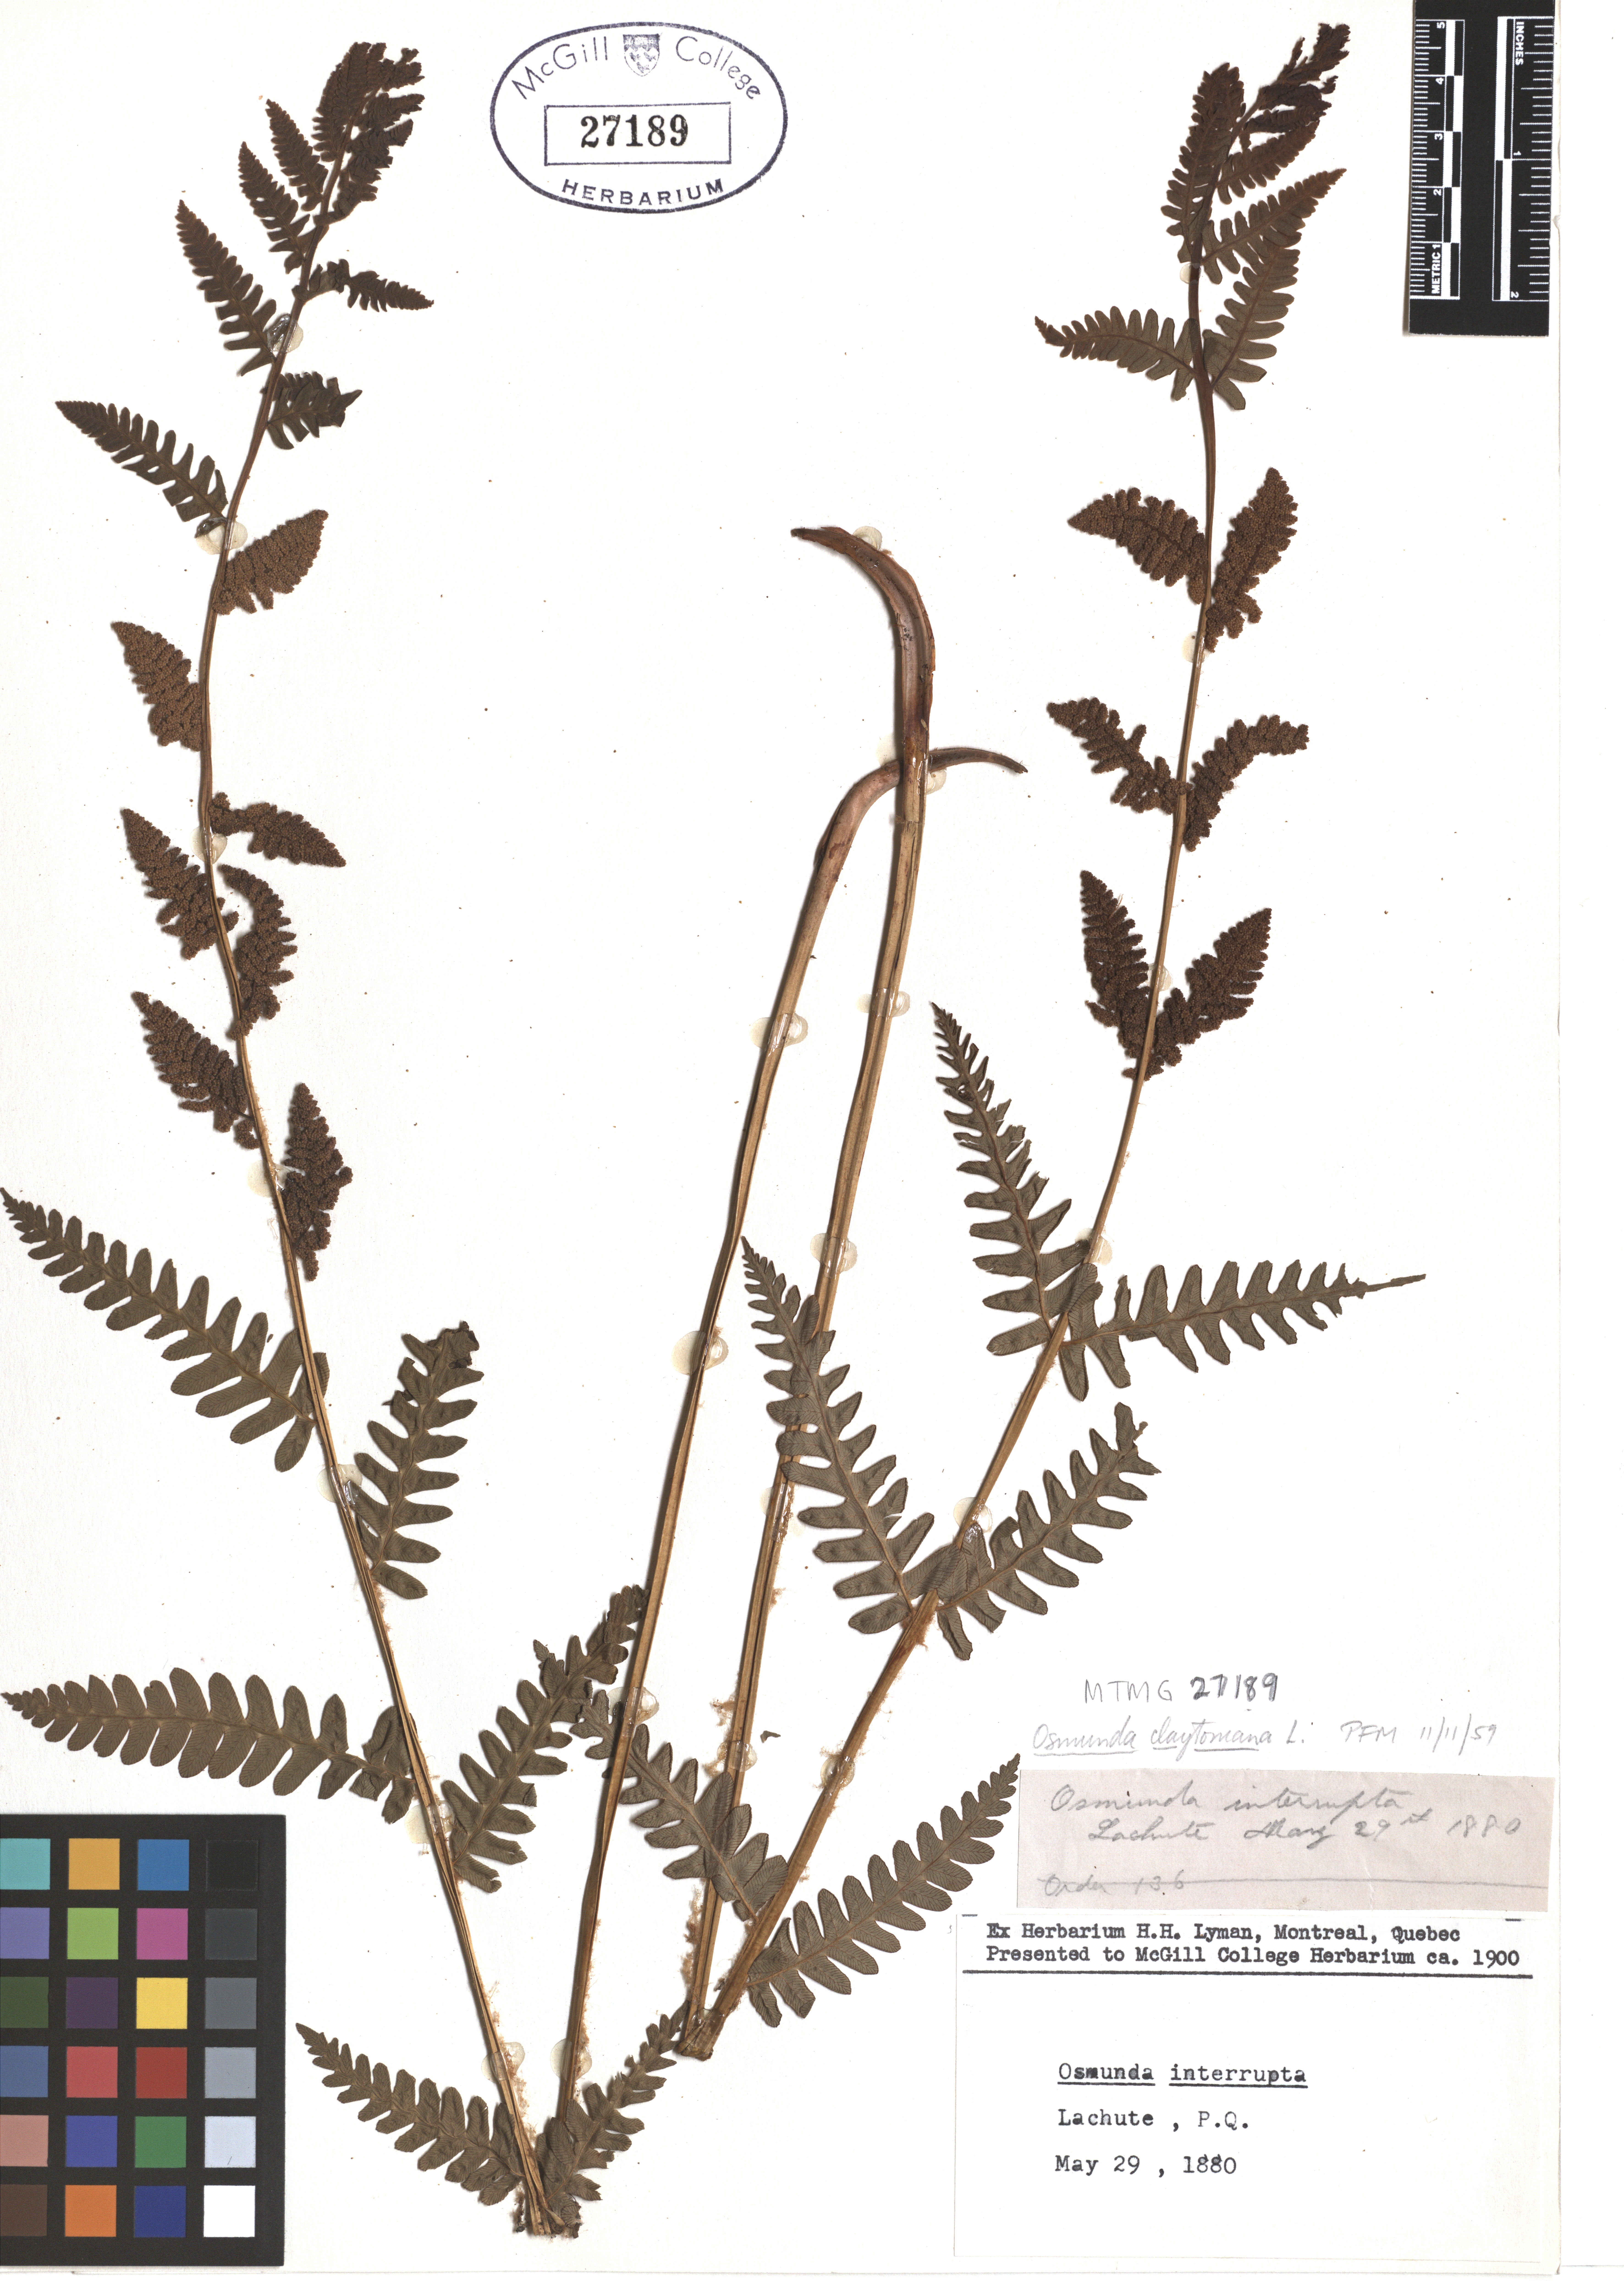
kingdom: Plantae
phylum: Tracheophyta
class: Polypodiopsida
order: Osmundales
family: Osmundaceae
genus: Claytosmunda
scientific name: Claytosmunda claytoniana
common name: Clayton's fern
